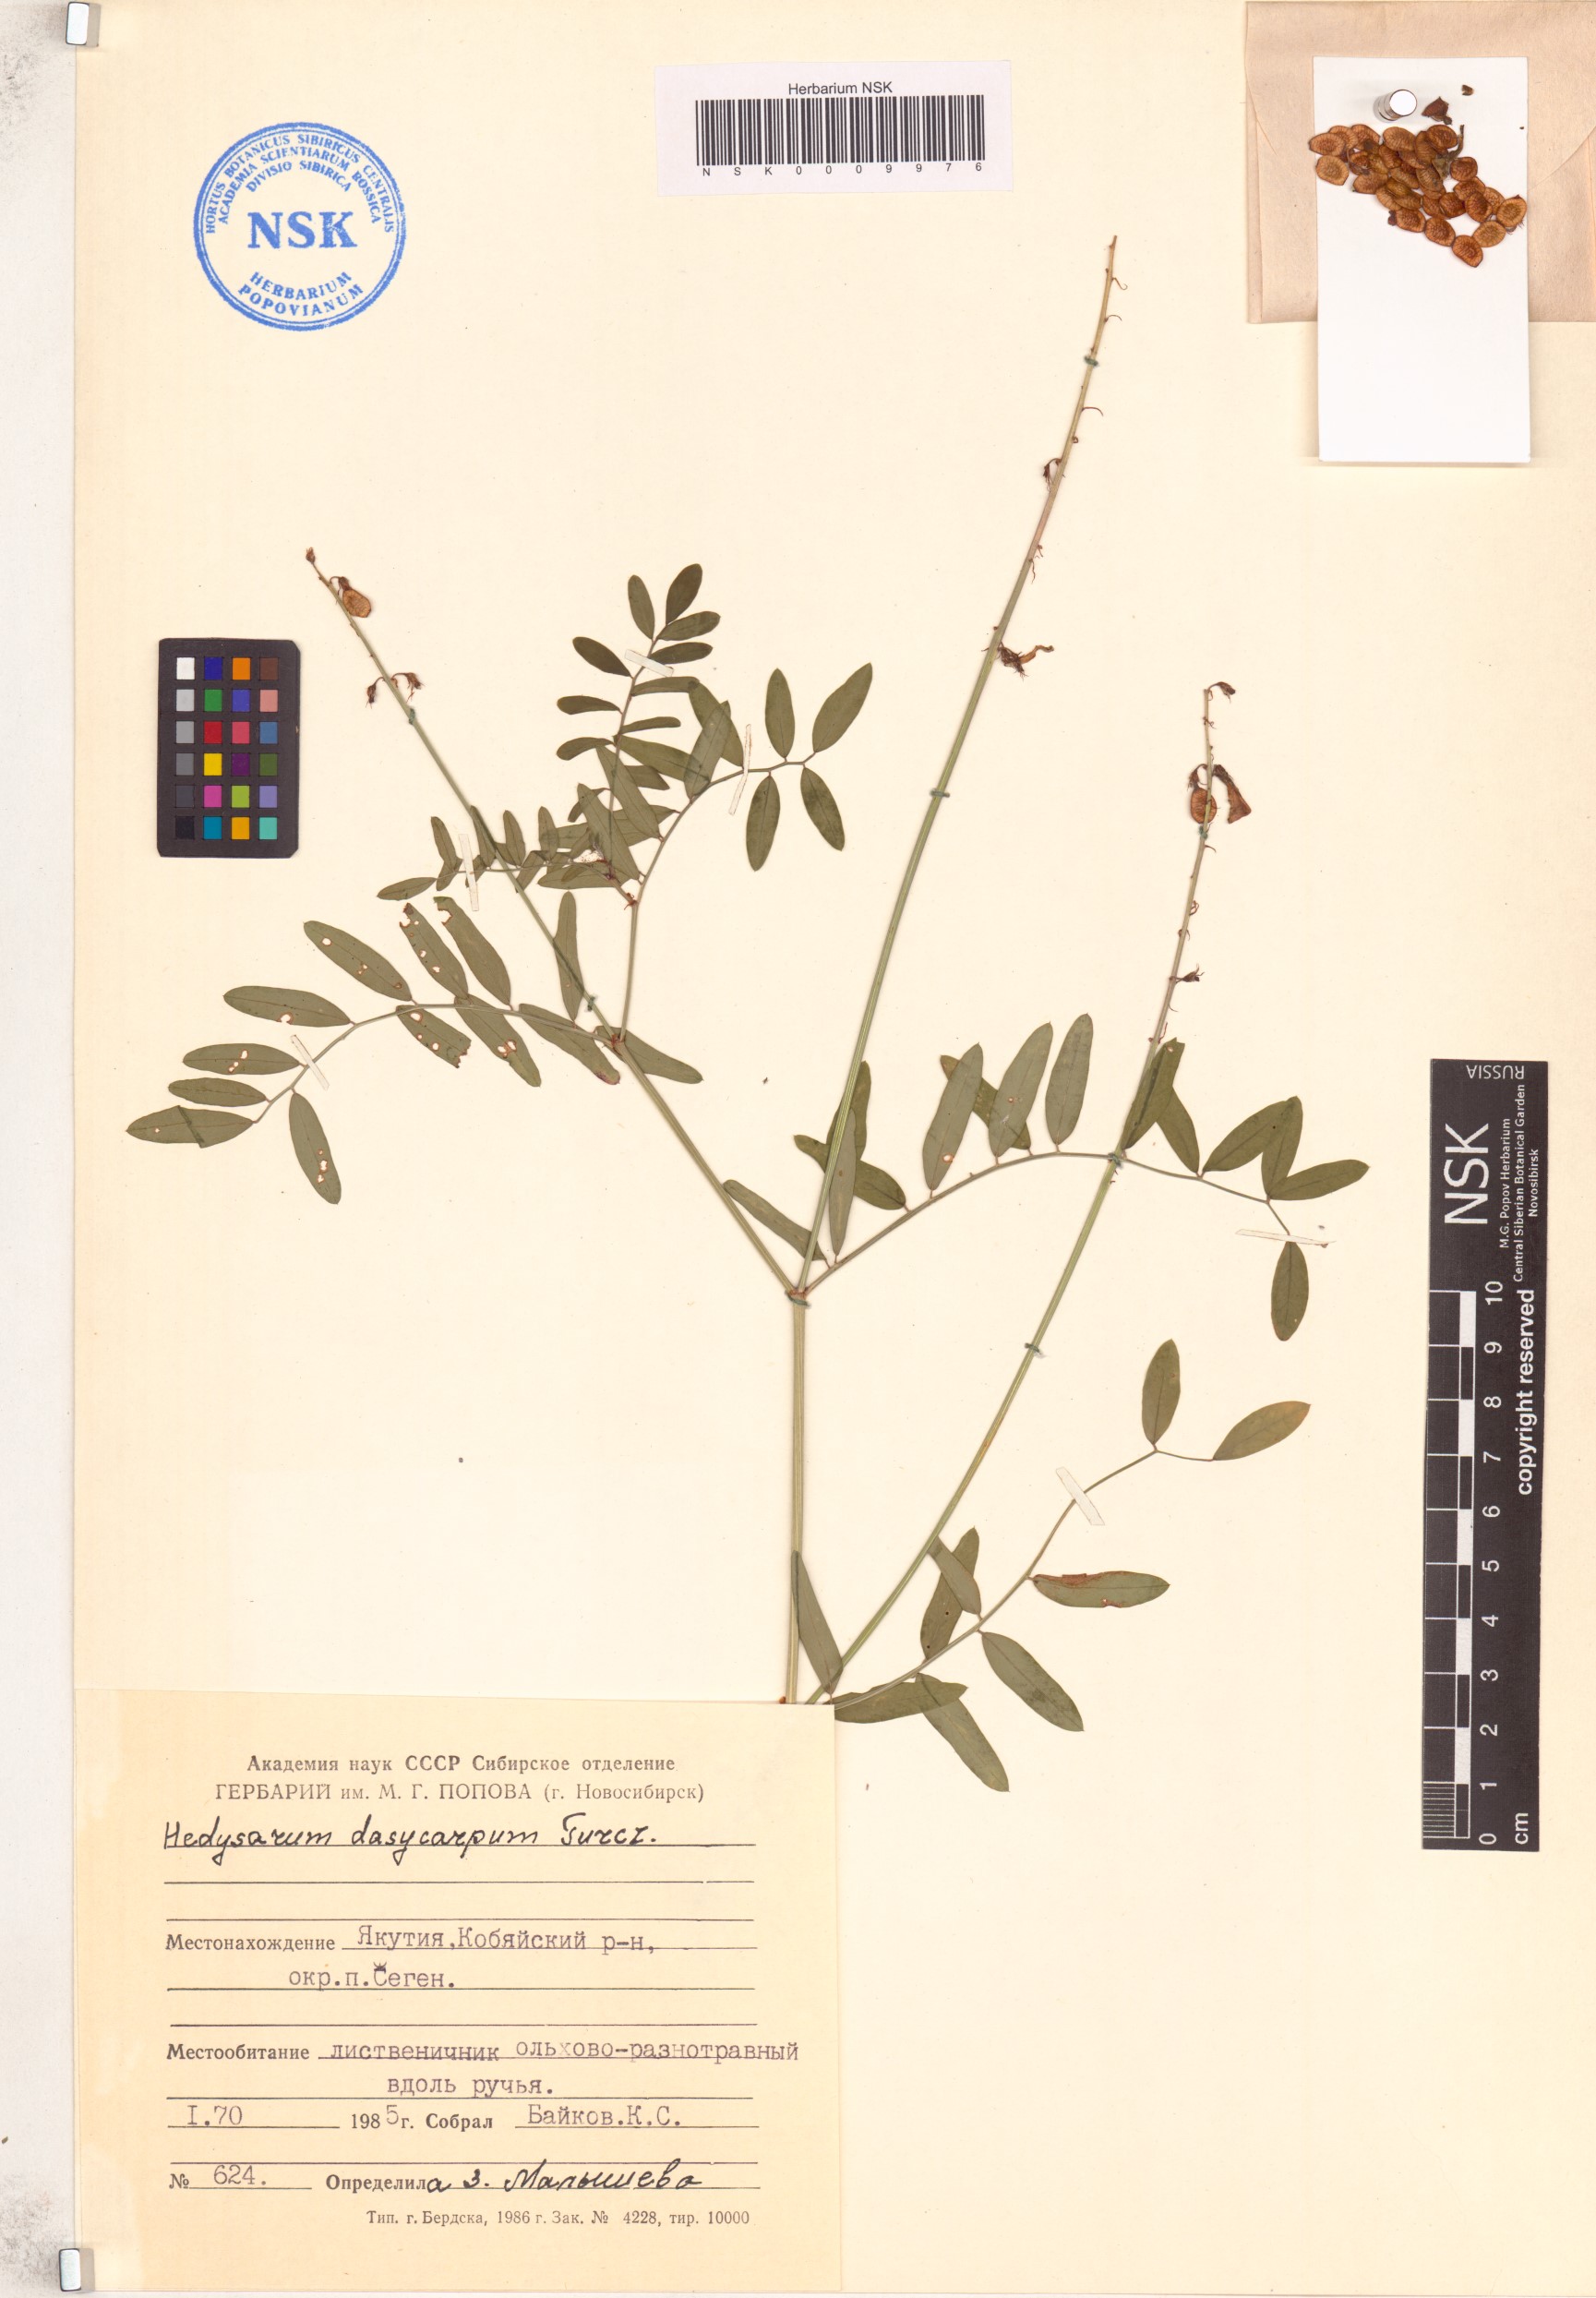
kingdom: Plantae
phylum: Tracheophyta
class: Magnoliopsida
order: Fabales
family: Fabaceae
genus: Hedysarum
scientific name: Hedysarum dasycarpum
